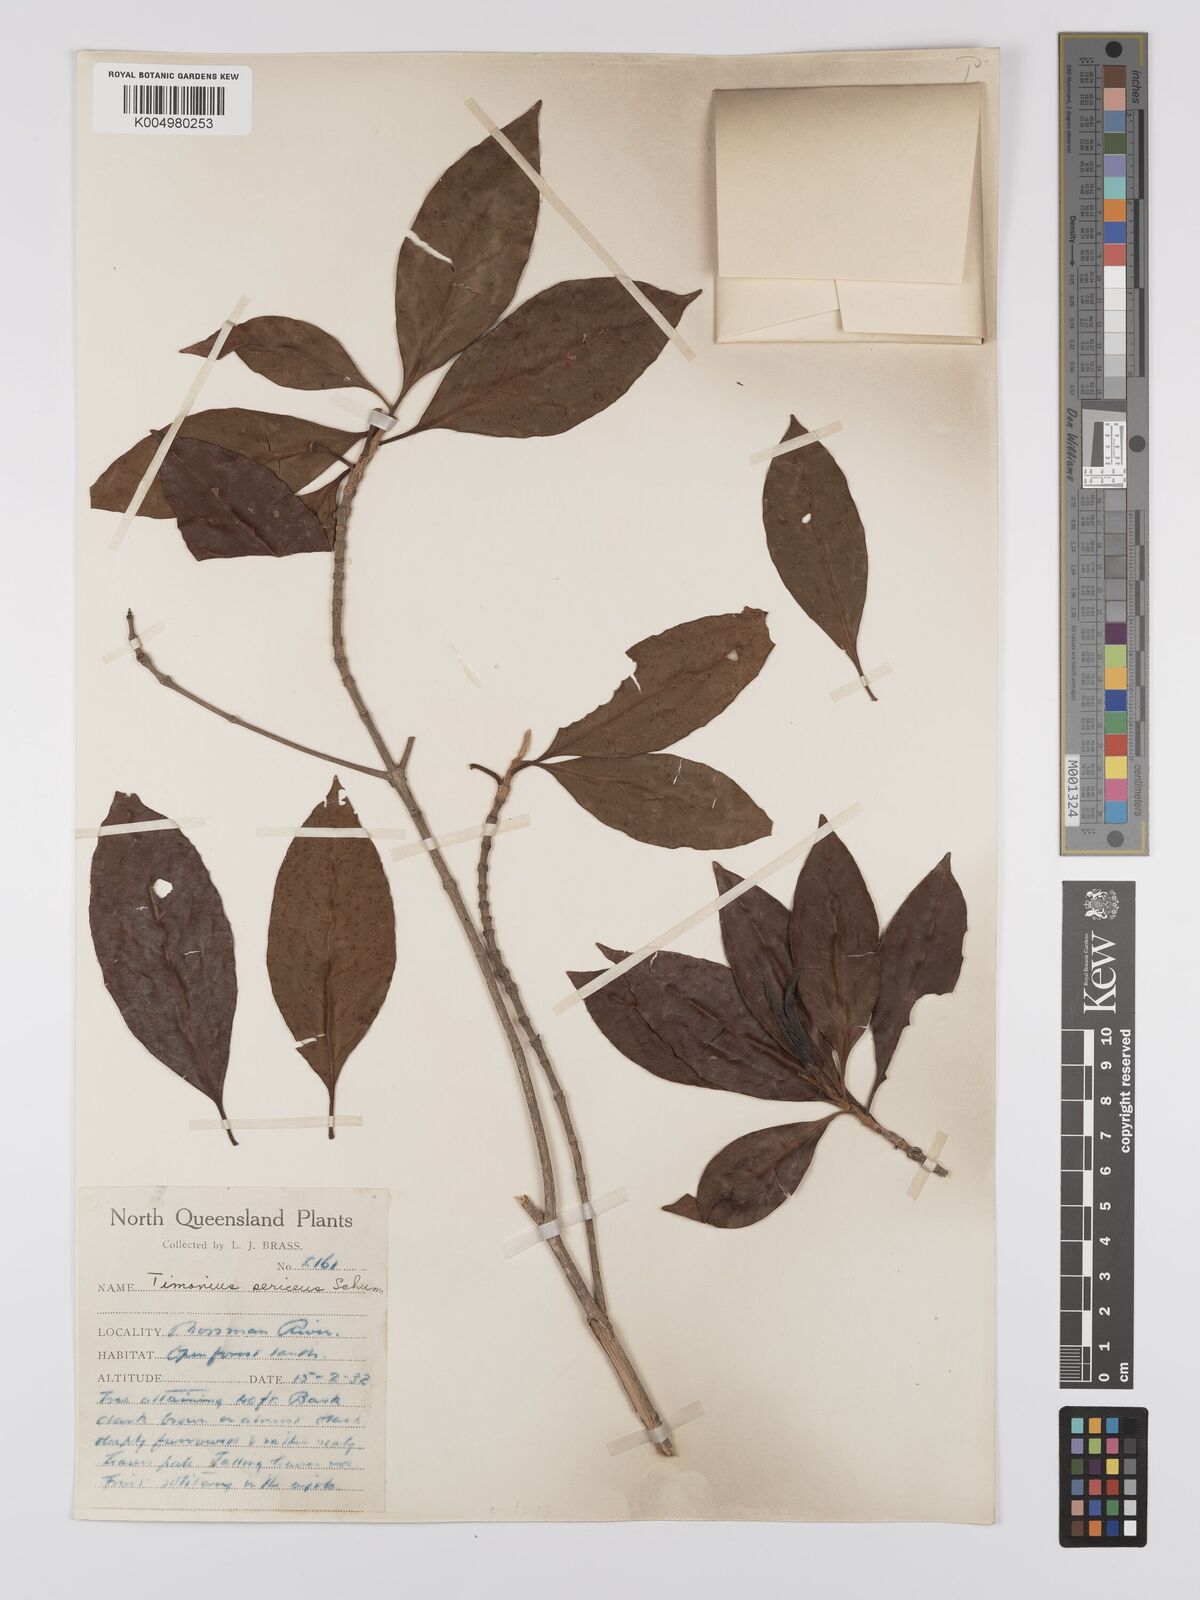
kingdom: Plantae
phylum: Tracheophyta
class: Magnoliopsida
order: Gentianales
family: Rubiaceae
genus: Timonius
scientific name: Timonius timon
